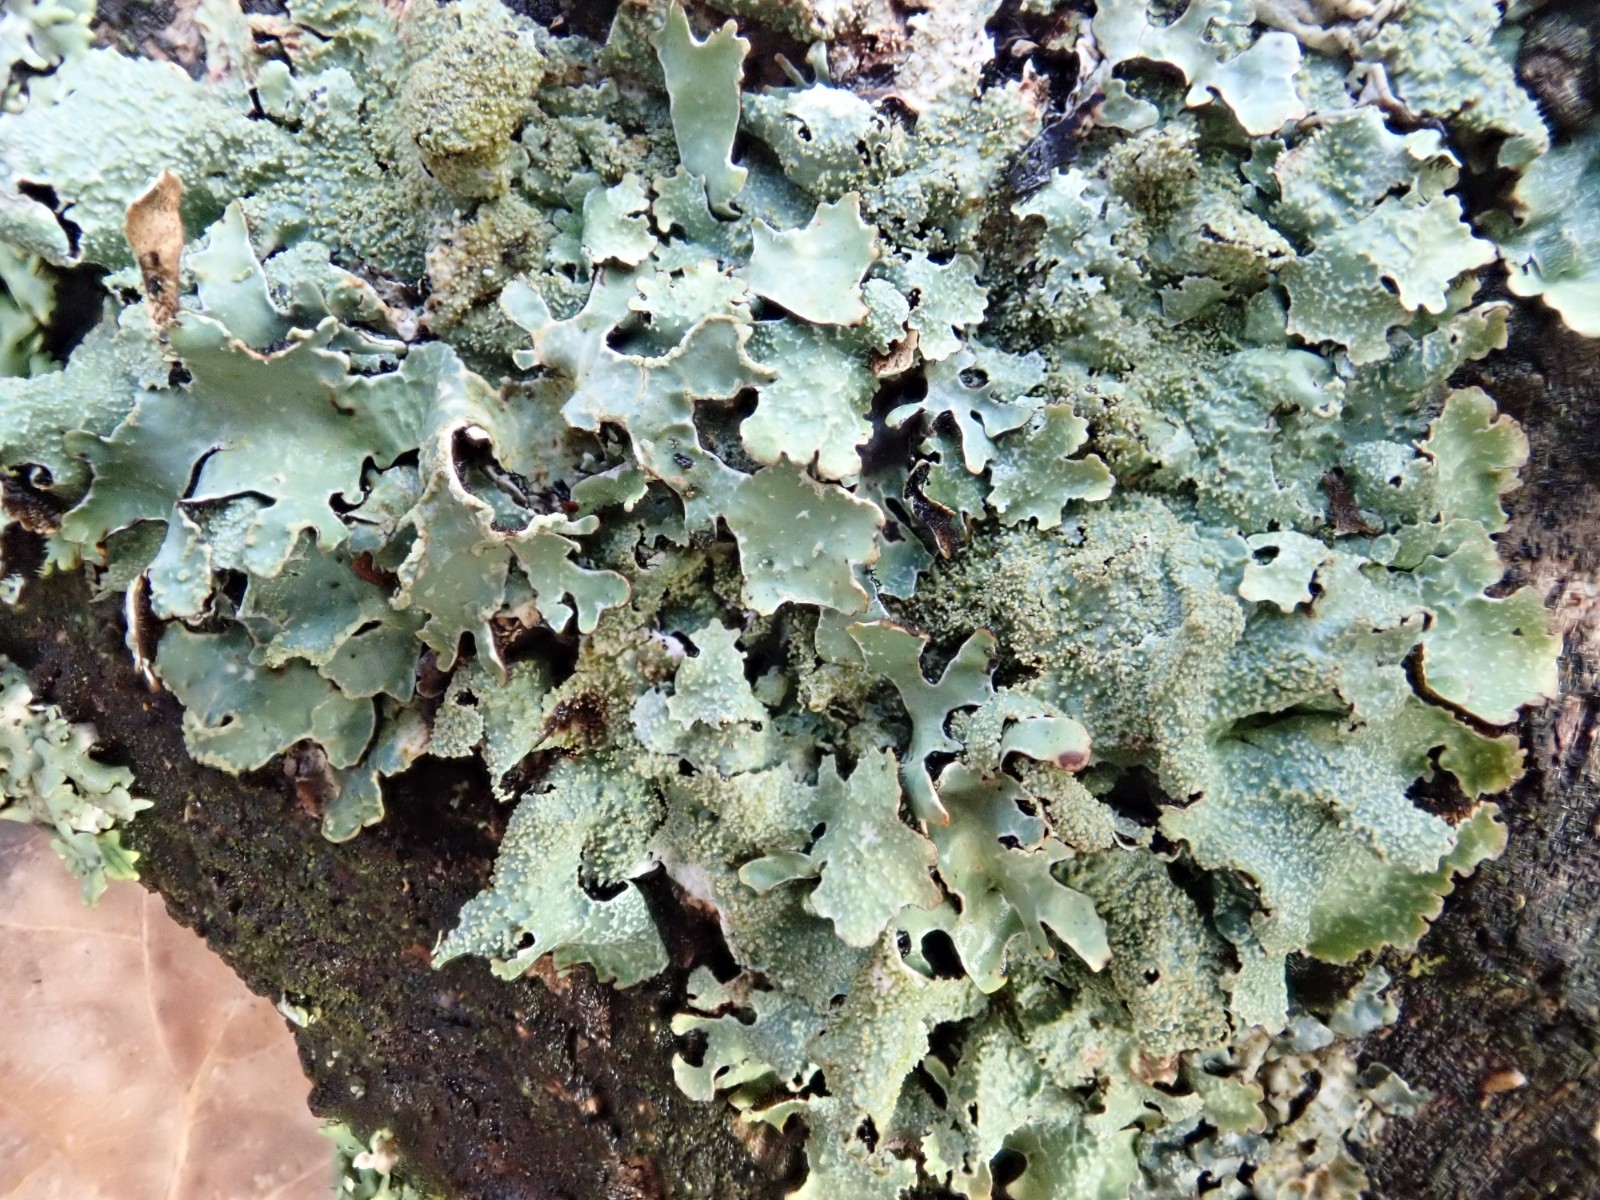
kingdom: Fungi
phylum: Ascomycota
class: Lecanoromycetes
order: Lecanorales
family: Parmeliaceae
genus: Parmelia
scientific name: Parmelia
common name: farve-skållav
